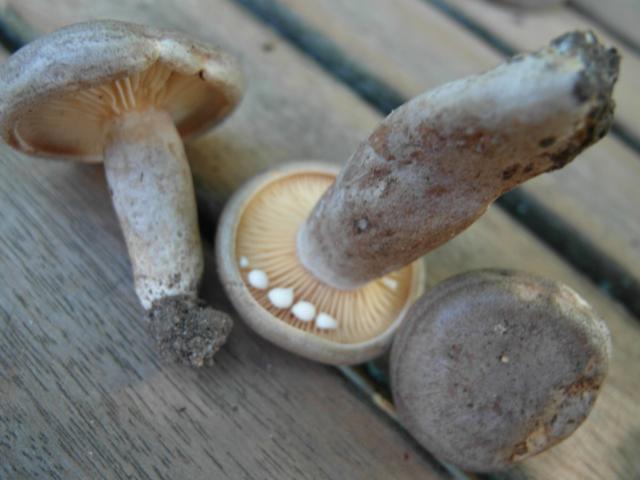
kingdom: Fungi
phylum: Basidiomycota
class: Agaricomycetes
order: Russulales
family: Russulaceae
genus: Lactarius
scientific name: Lactarius pyrogalus
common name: hassel-mælkehat
